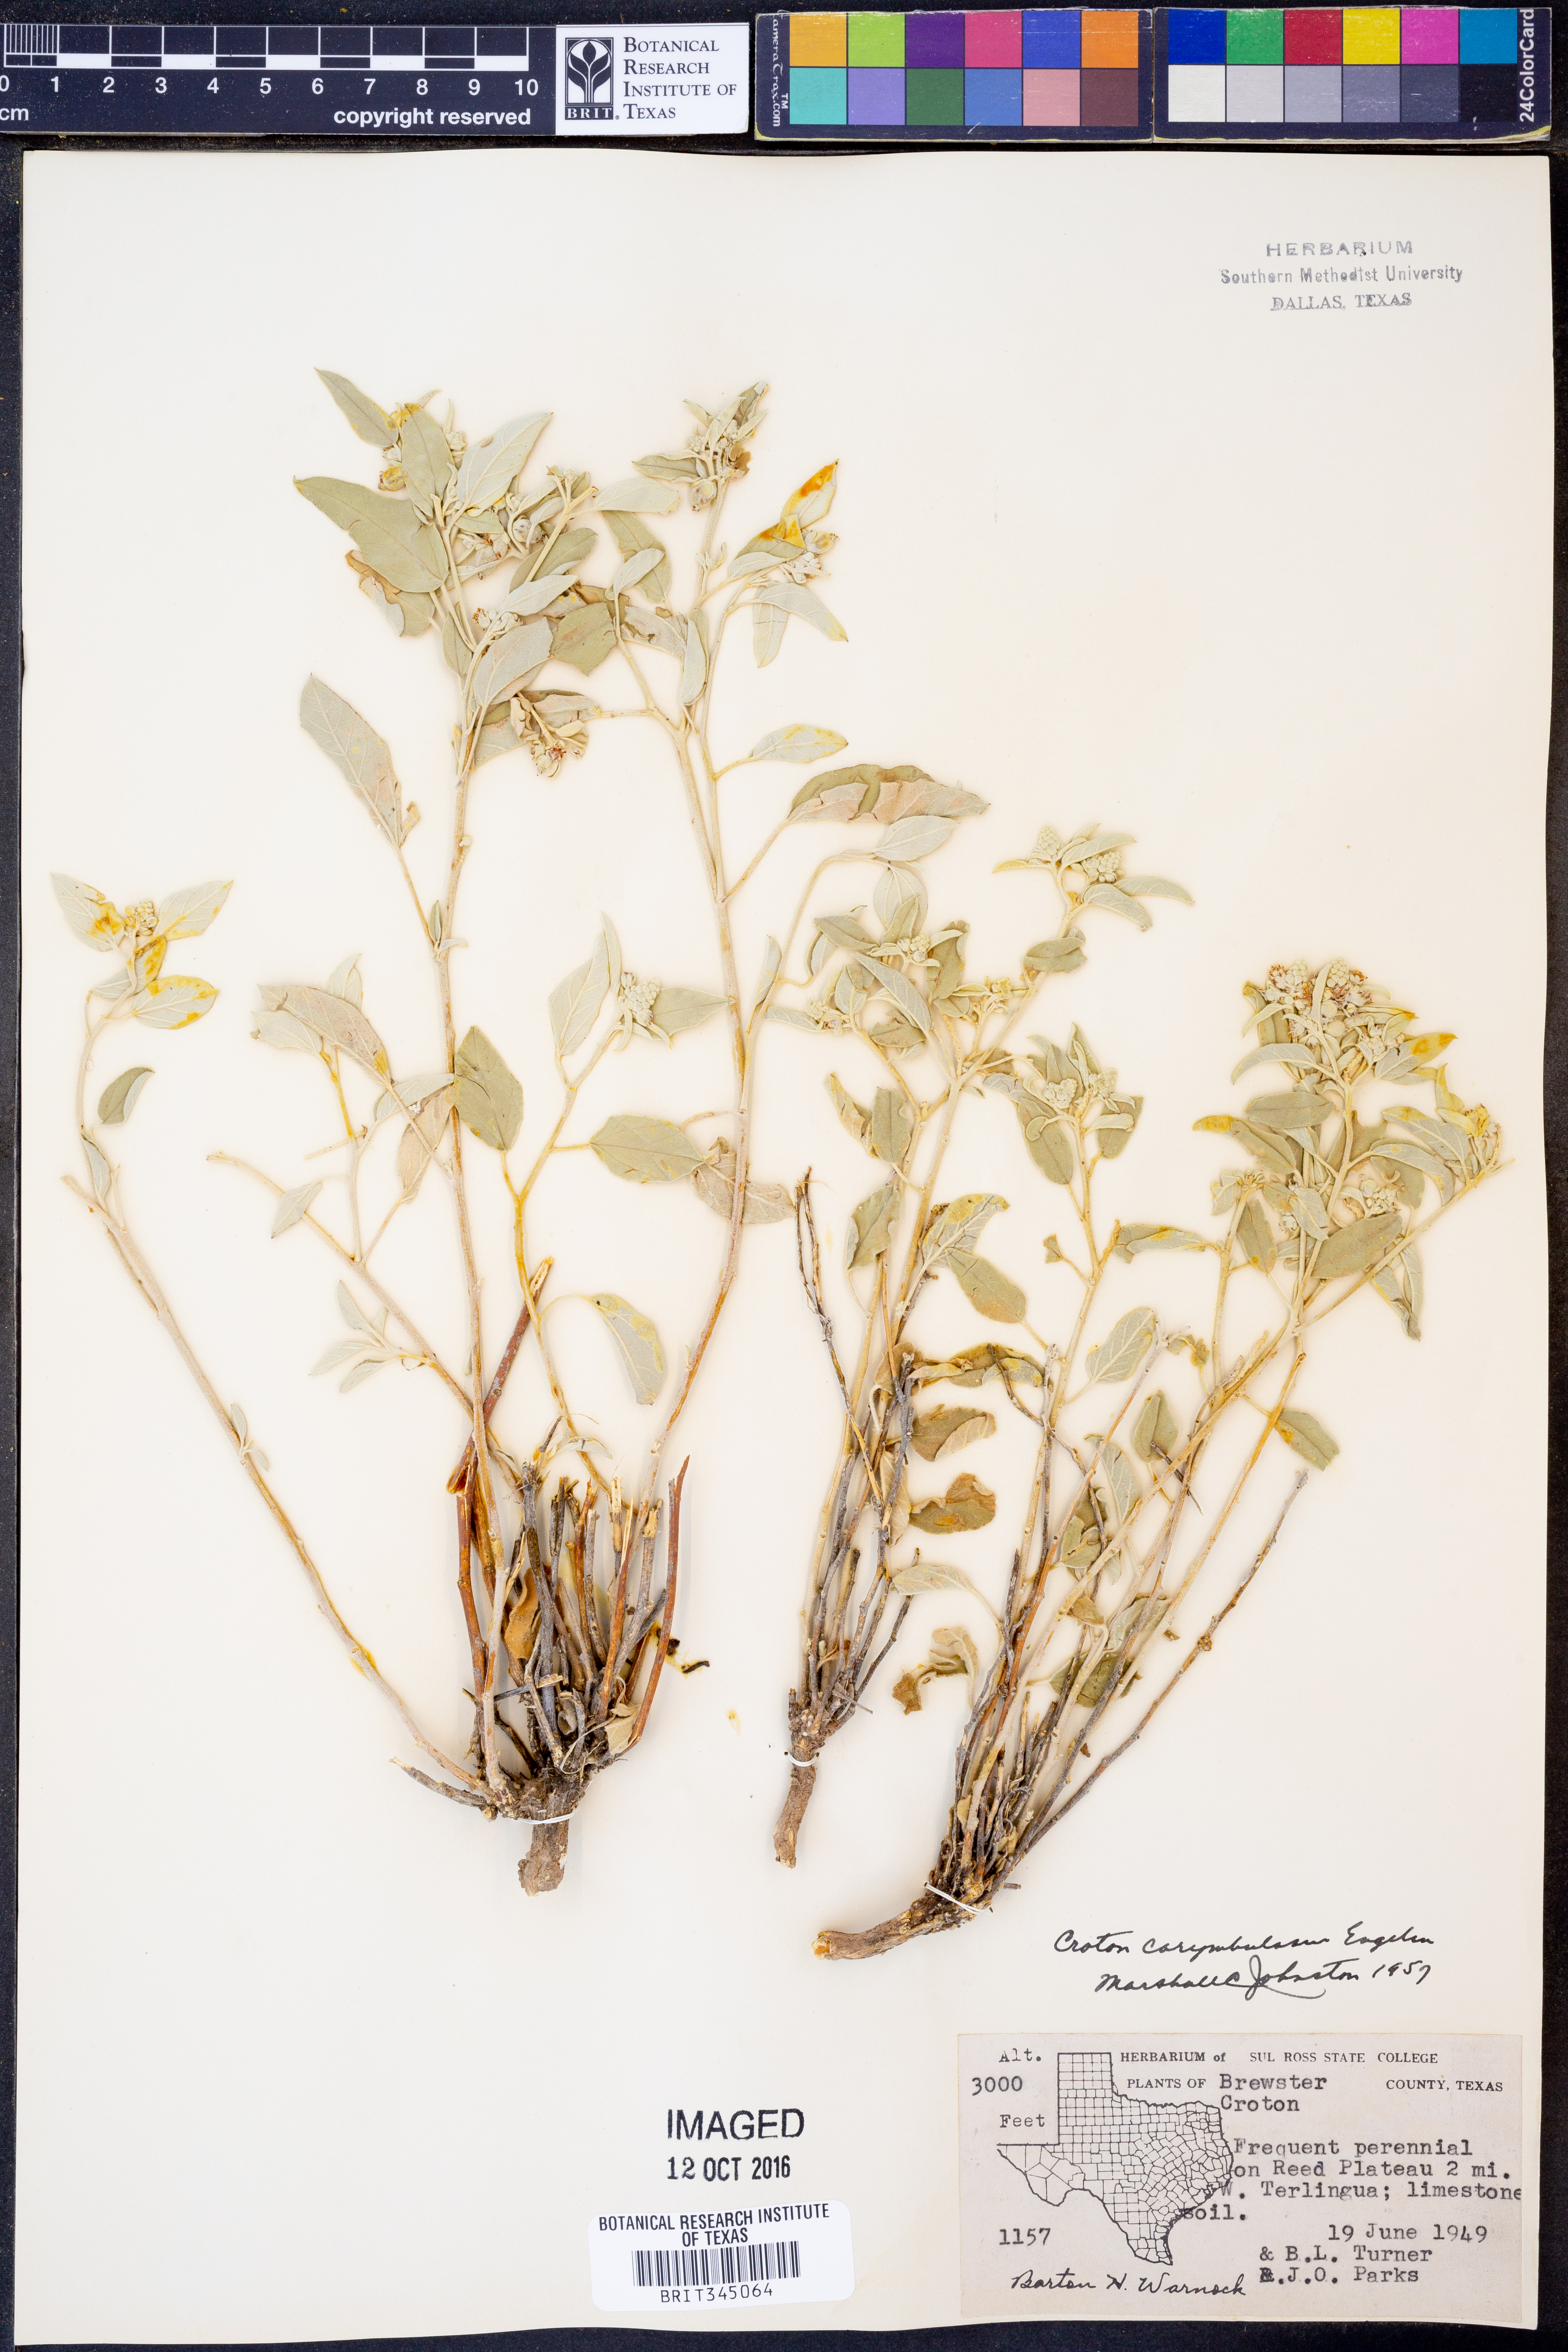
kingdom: Plantae
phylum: Tracheophyta
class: Magnoliopsida
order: Malpighiales
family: Euphorbiaceae
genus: Croton
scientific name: Croton pottsii
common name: Leatherweed
